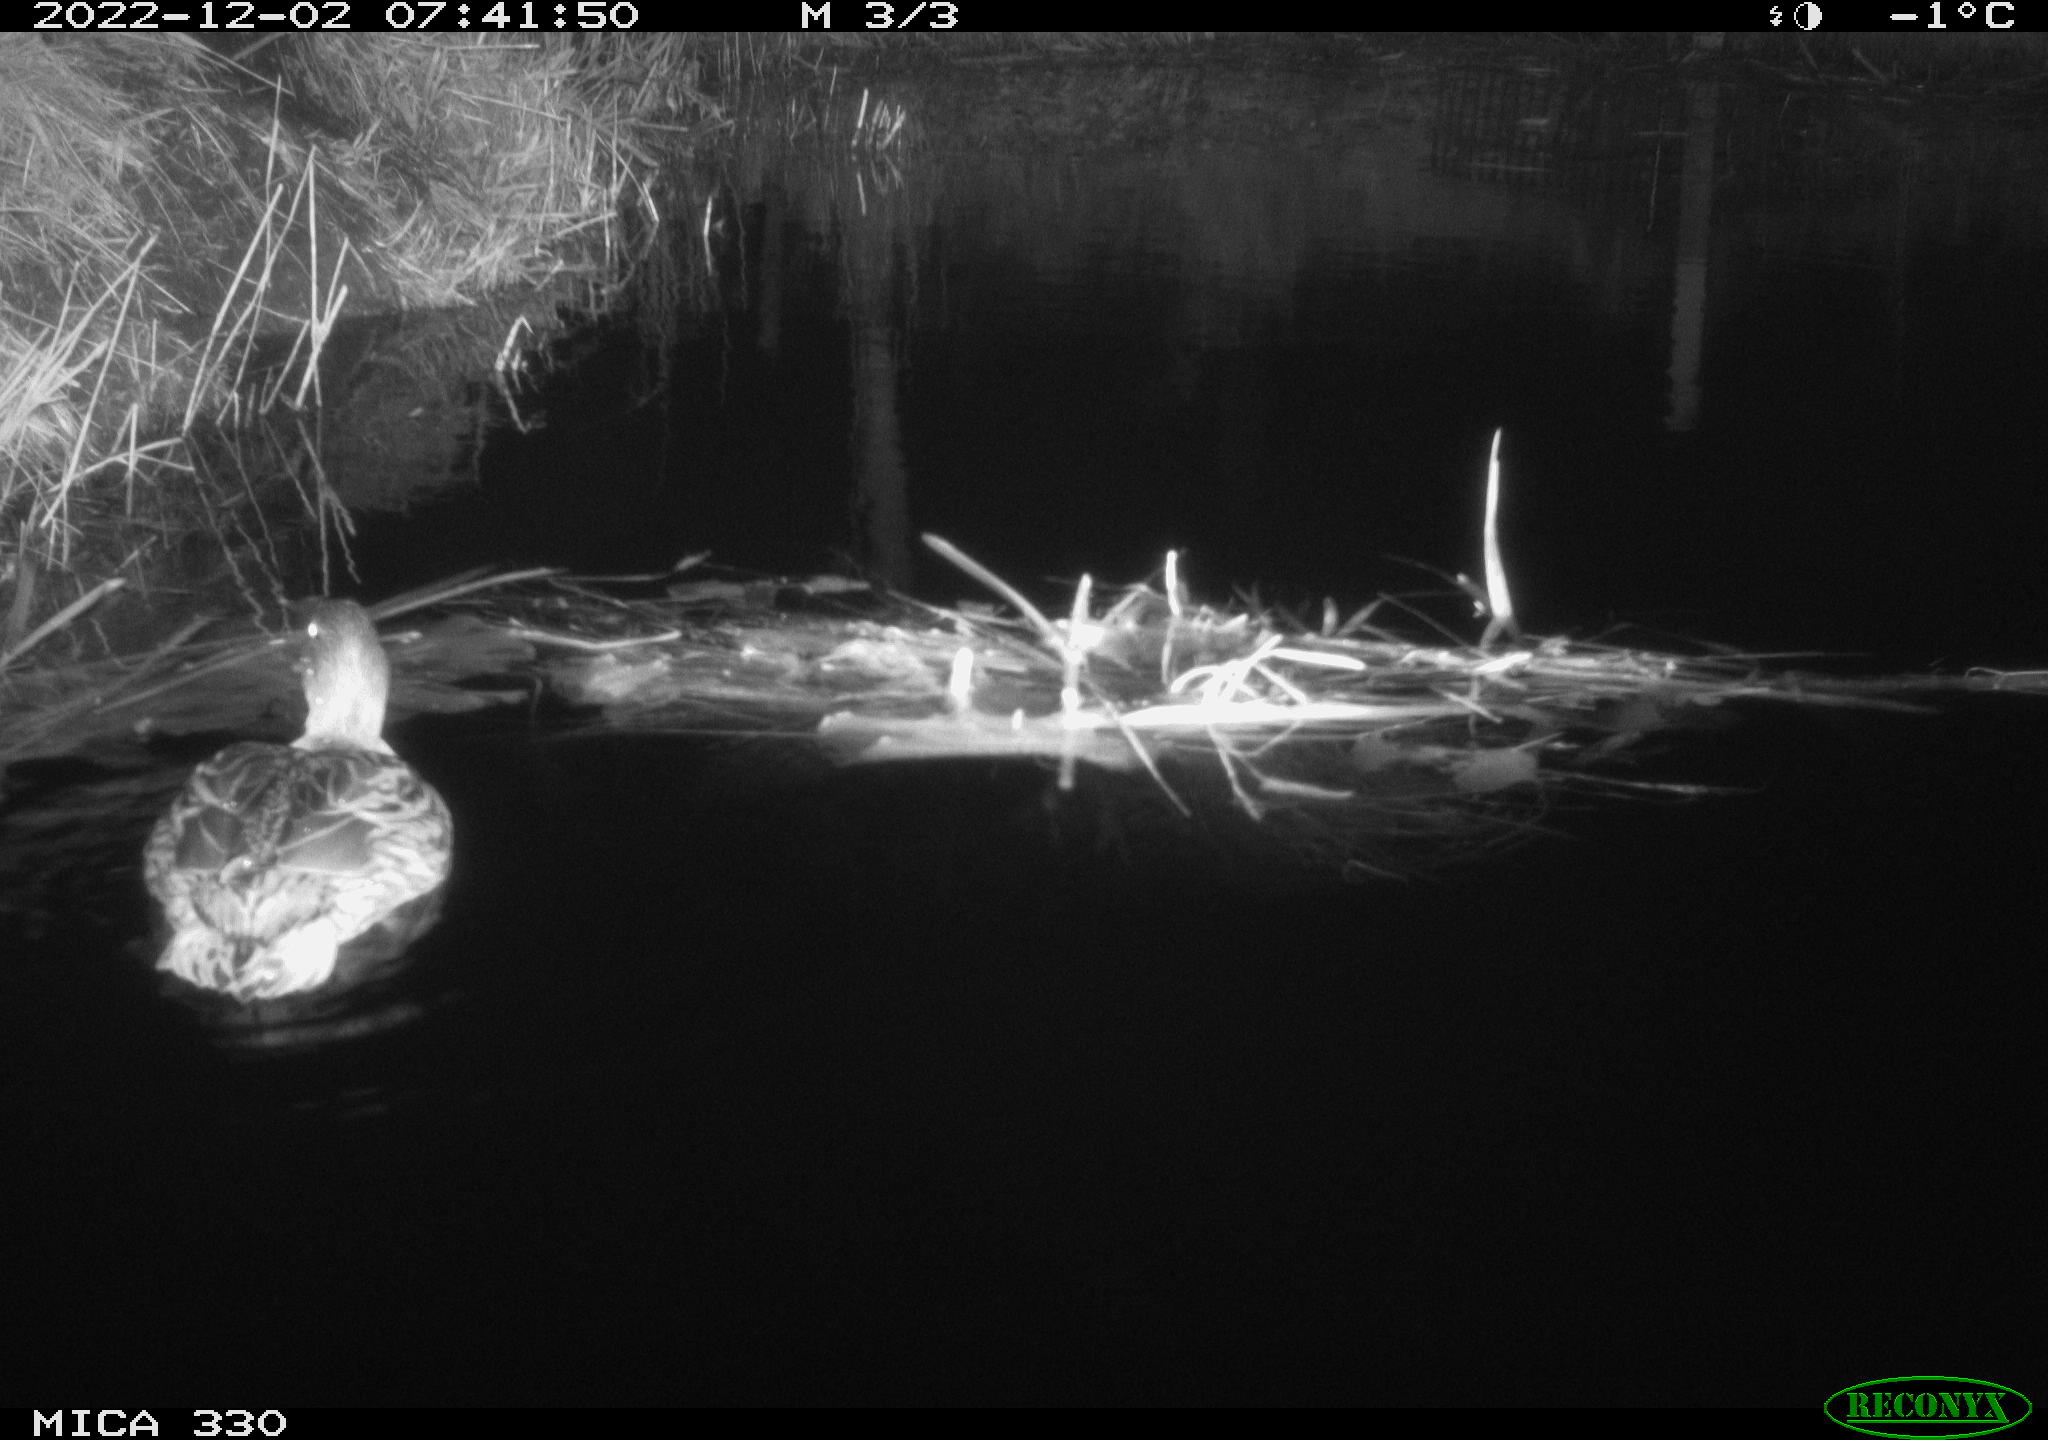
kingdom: Animalia
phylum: Chordata
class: Aves
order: Anseriformes
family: Anatidae
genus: Anas
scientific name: Anas platyrhynchos
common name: Mallard
